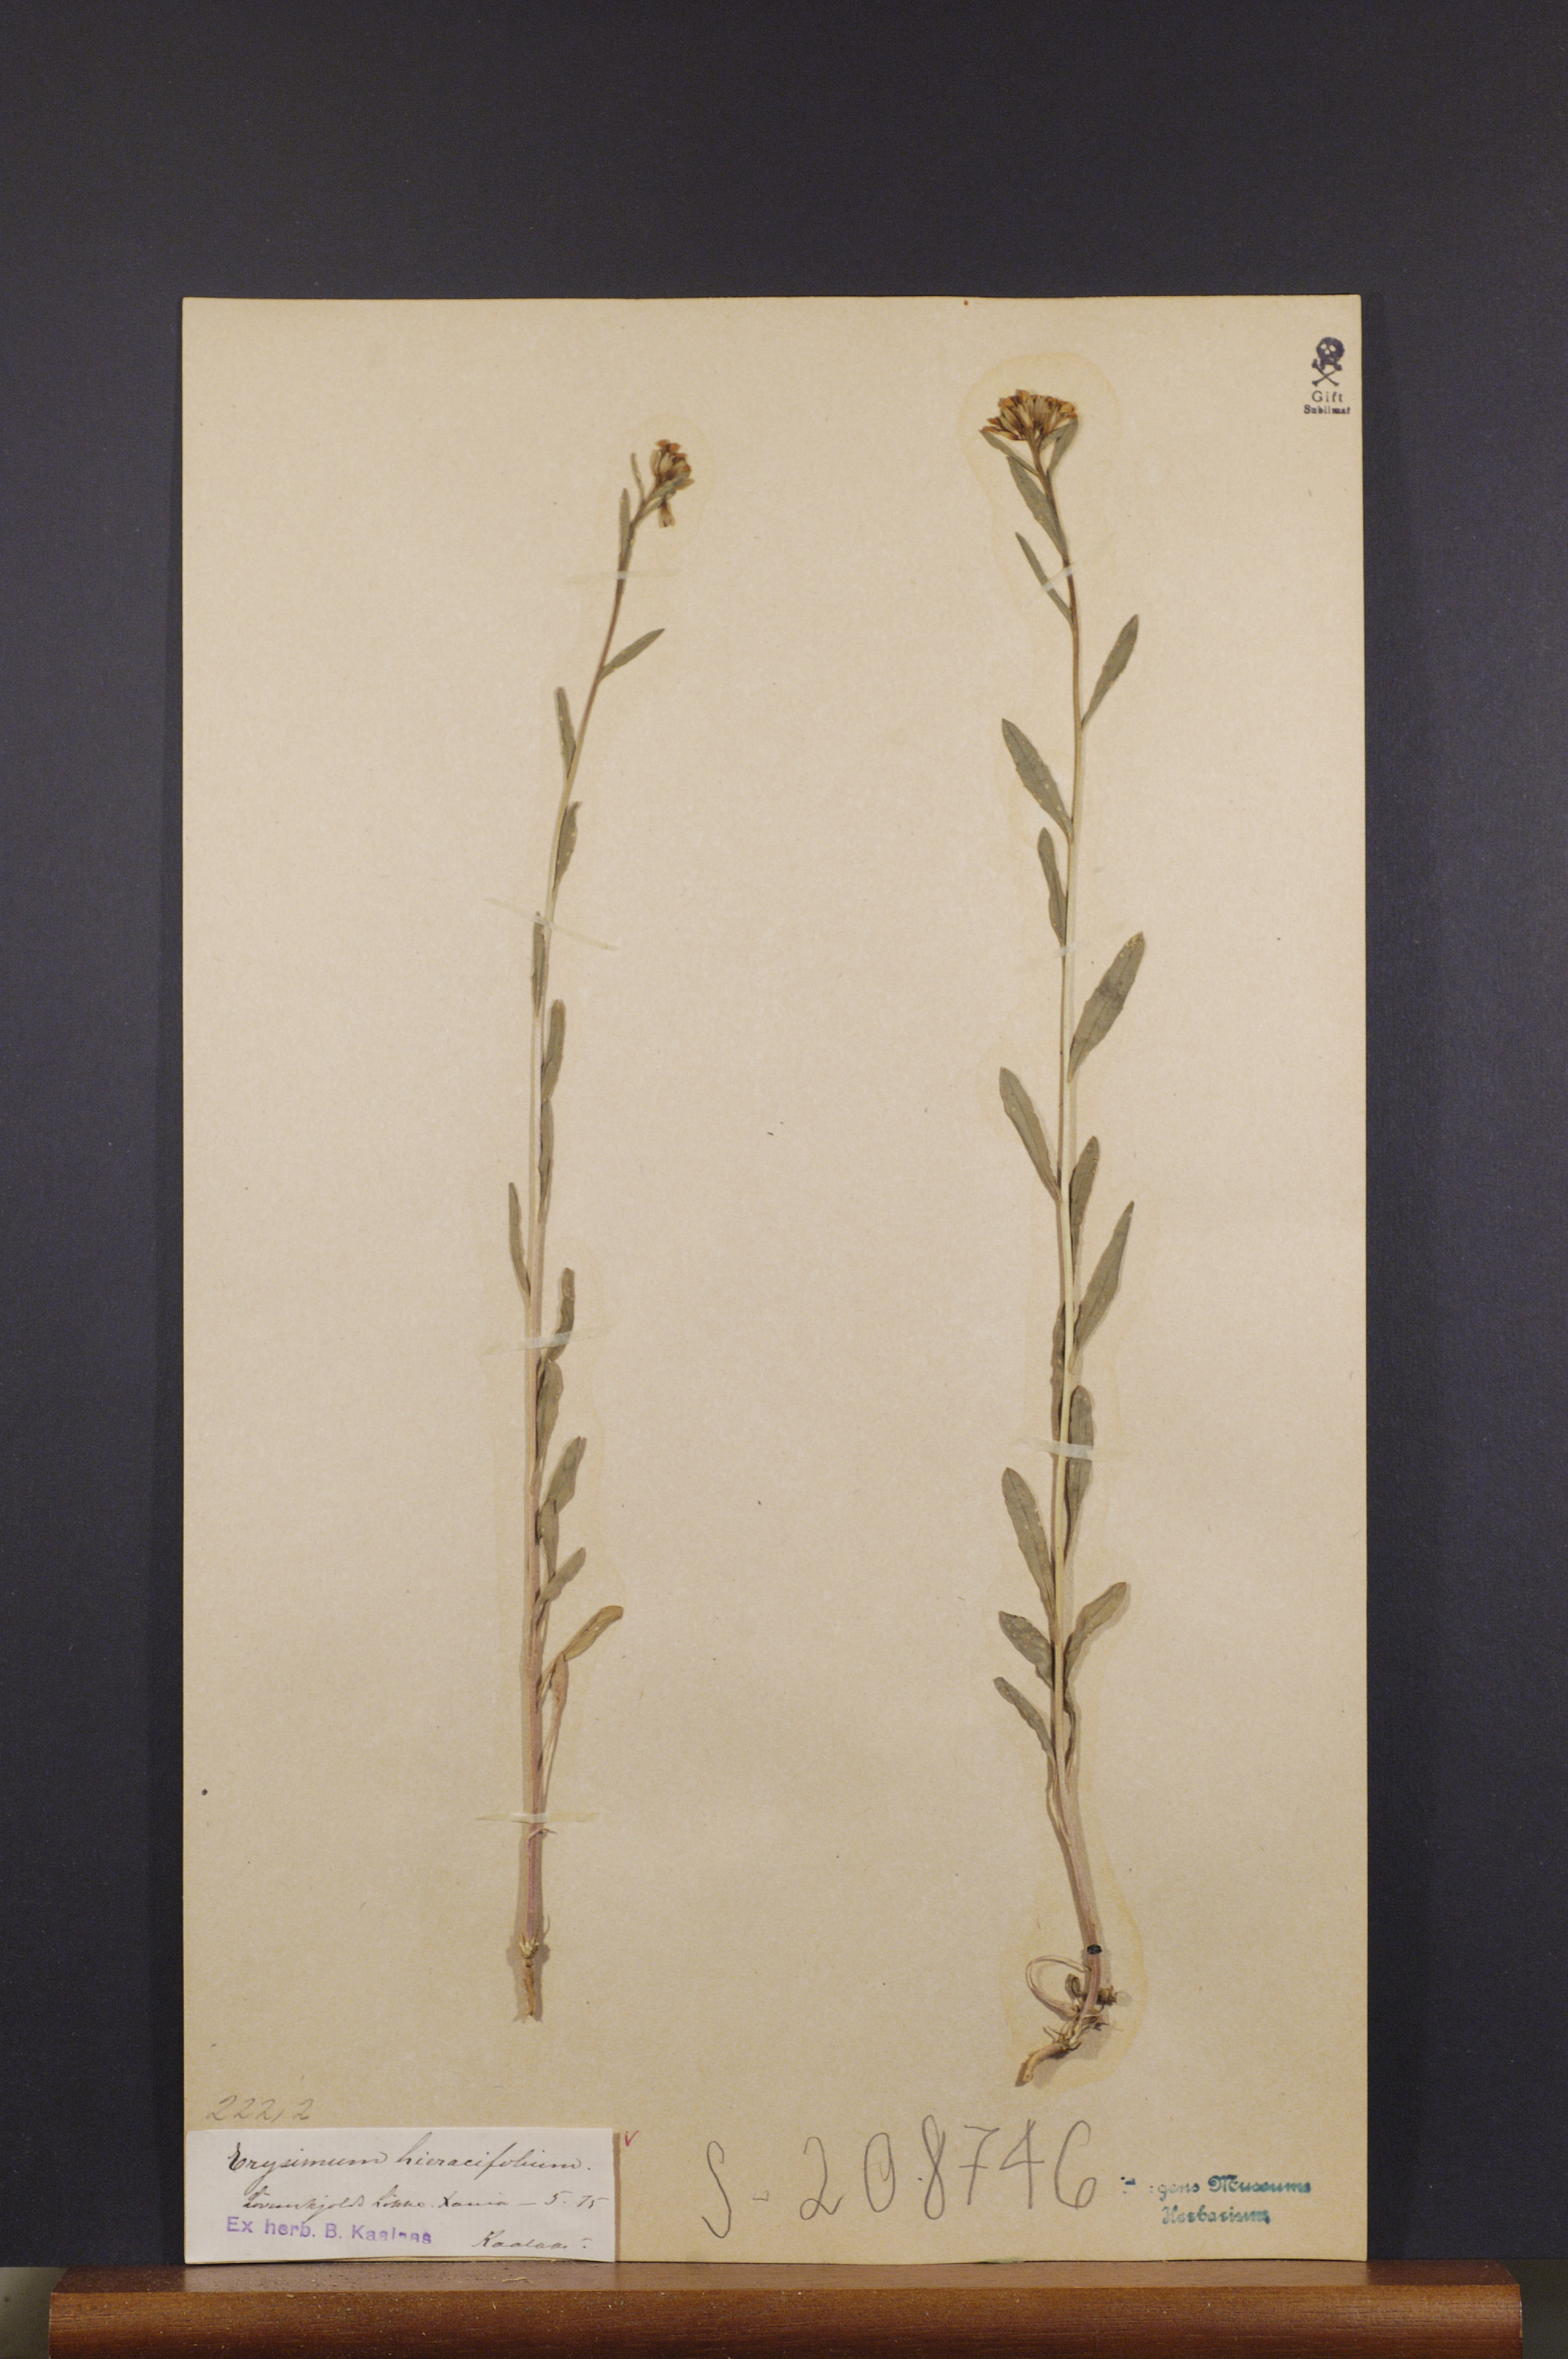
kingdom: Plantae
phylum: Tracheophyta
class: Magnoliopsida
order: Brassicales
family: Brassicaceae
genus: Erysimum
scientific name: Erysimum hieraciifolium
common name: European wallflower
